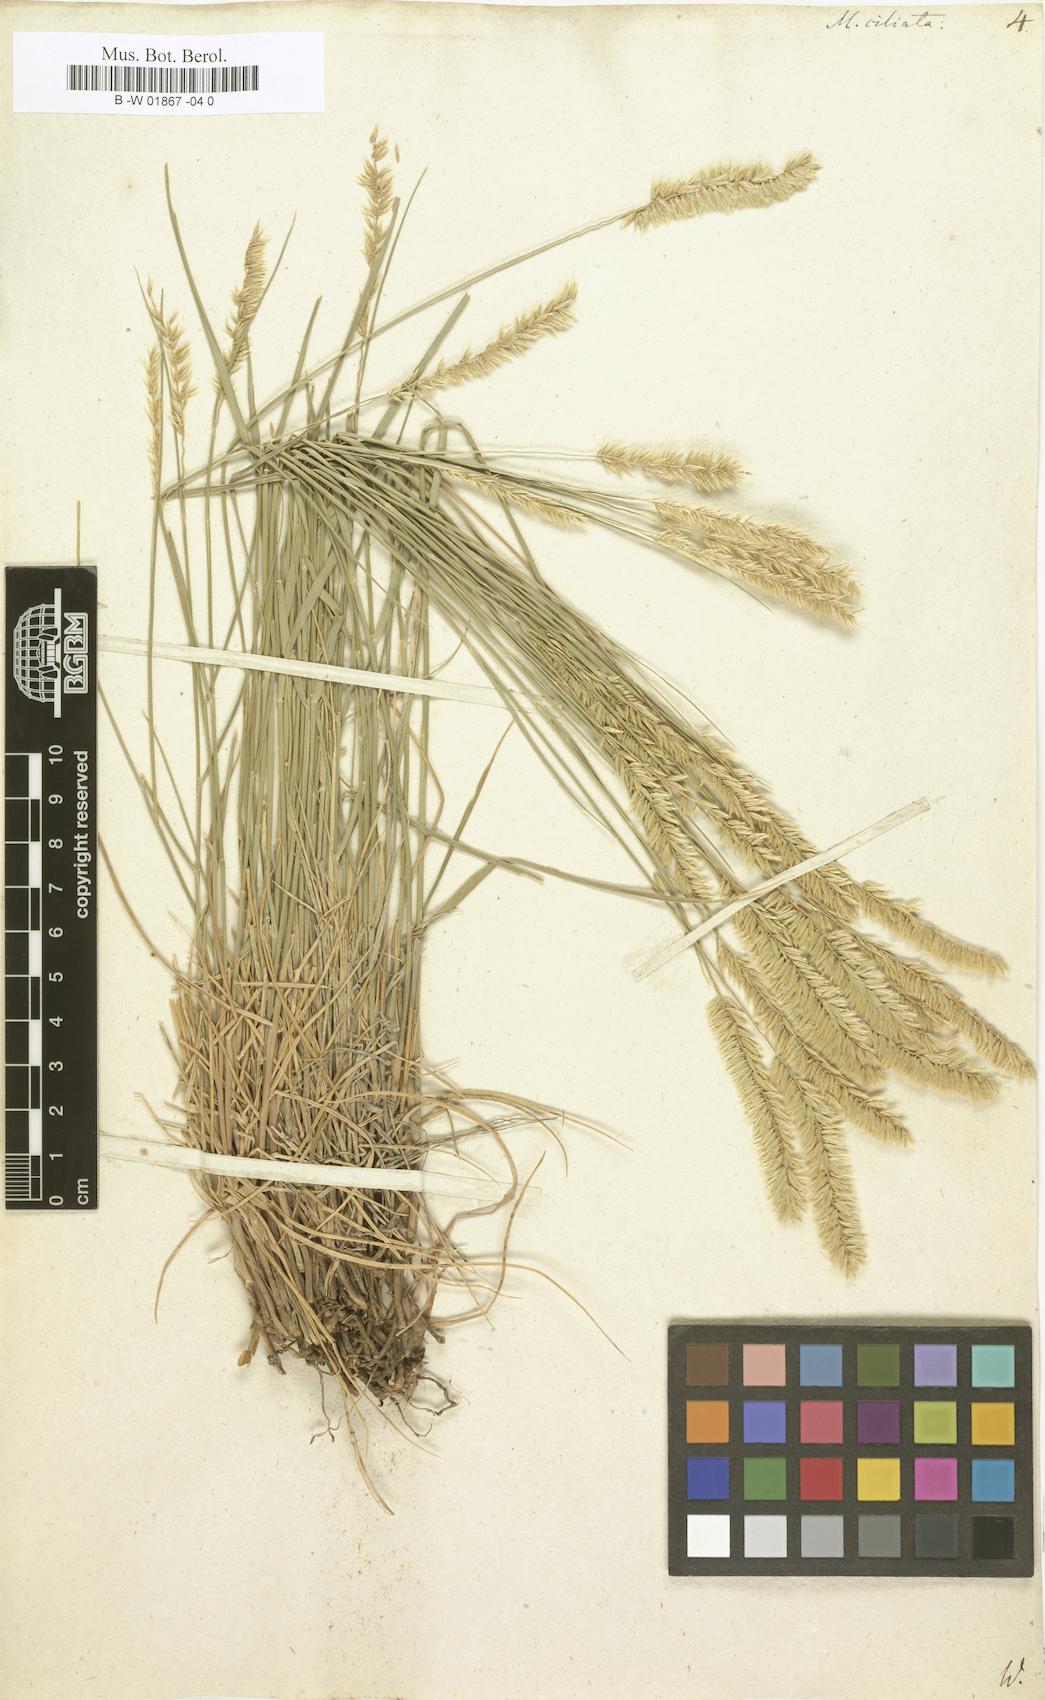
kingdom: Plantae
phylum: Tracheophyta
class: Liliopsida
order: Poales
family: Poaceae
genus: Melica
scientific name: Melica ciliata
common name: Hairy melicgrass
